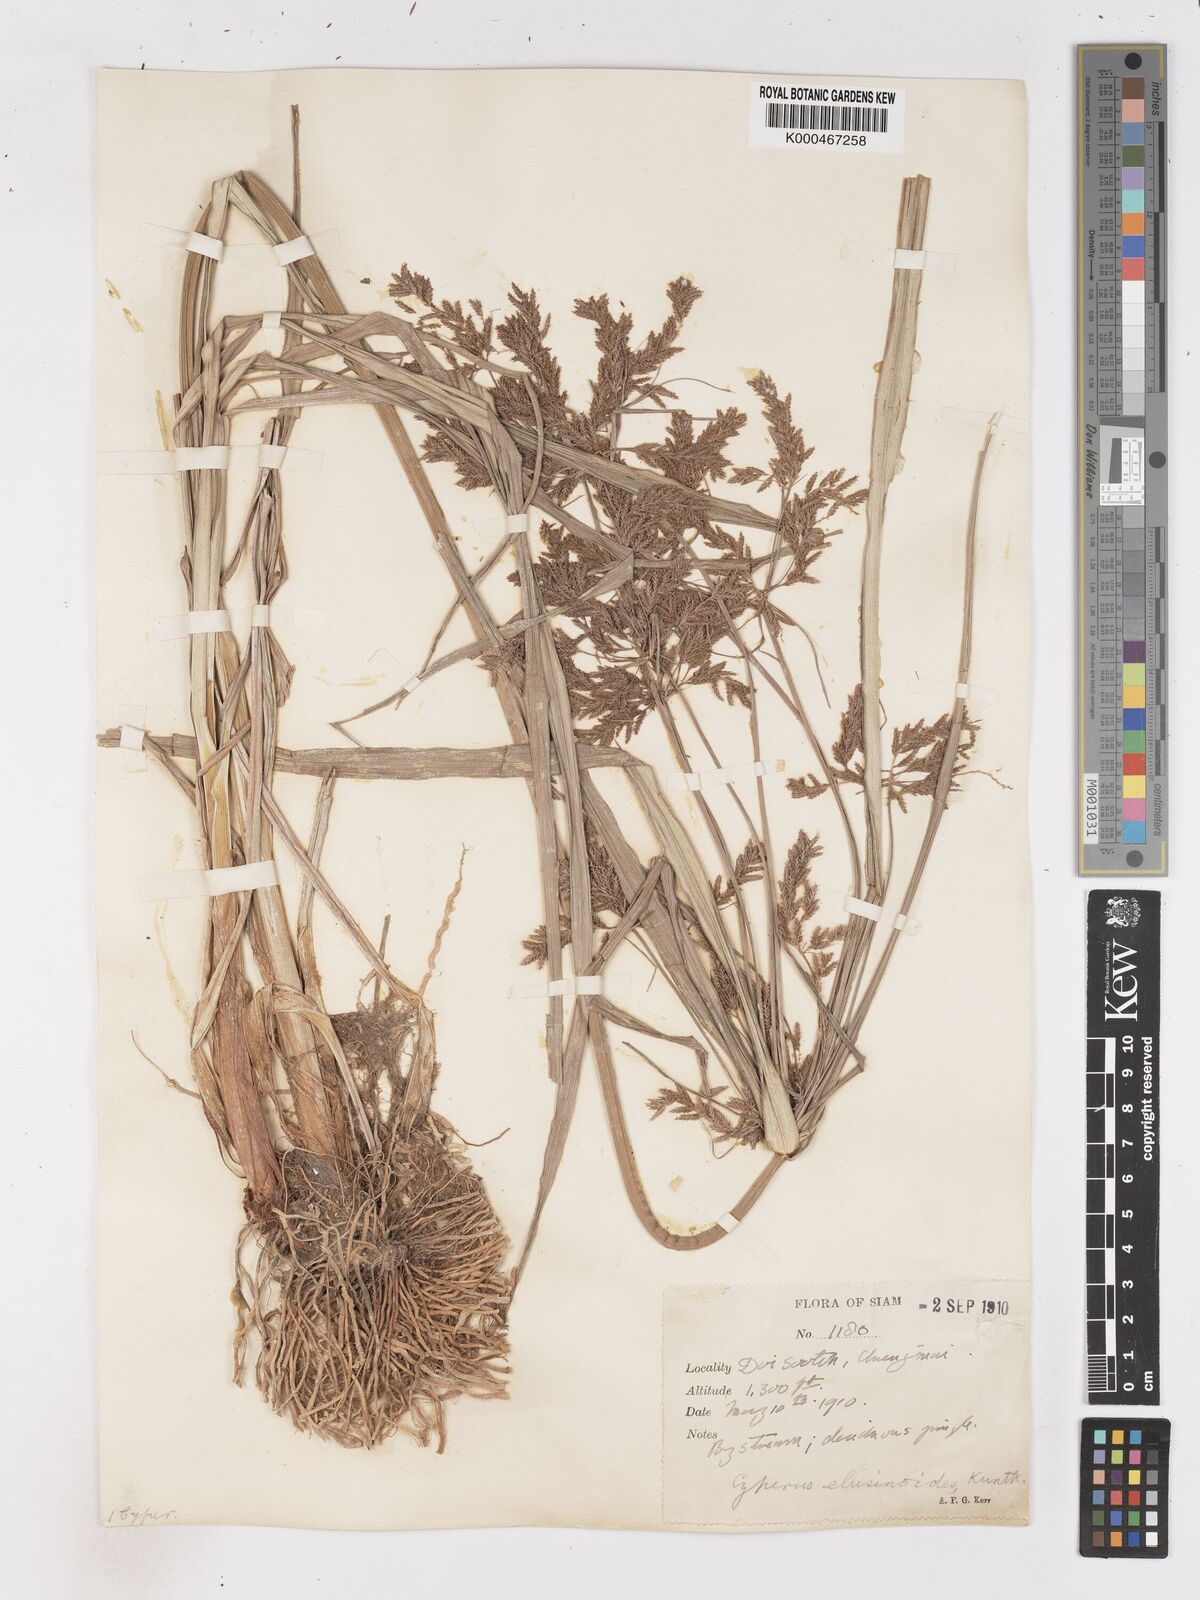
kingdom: Plantae
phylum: Tracheophyta
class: Liliopsida
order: Poales
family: Cyperaceae
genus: Cyperus
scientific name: Cyperus nutans
